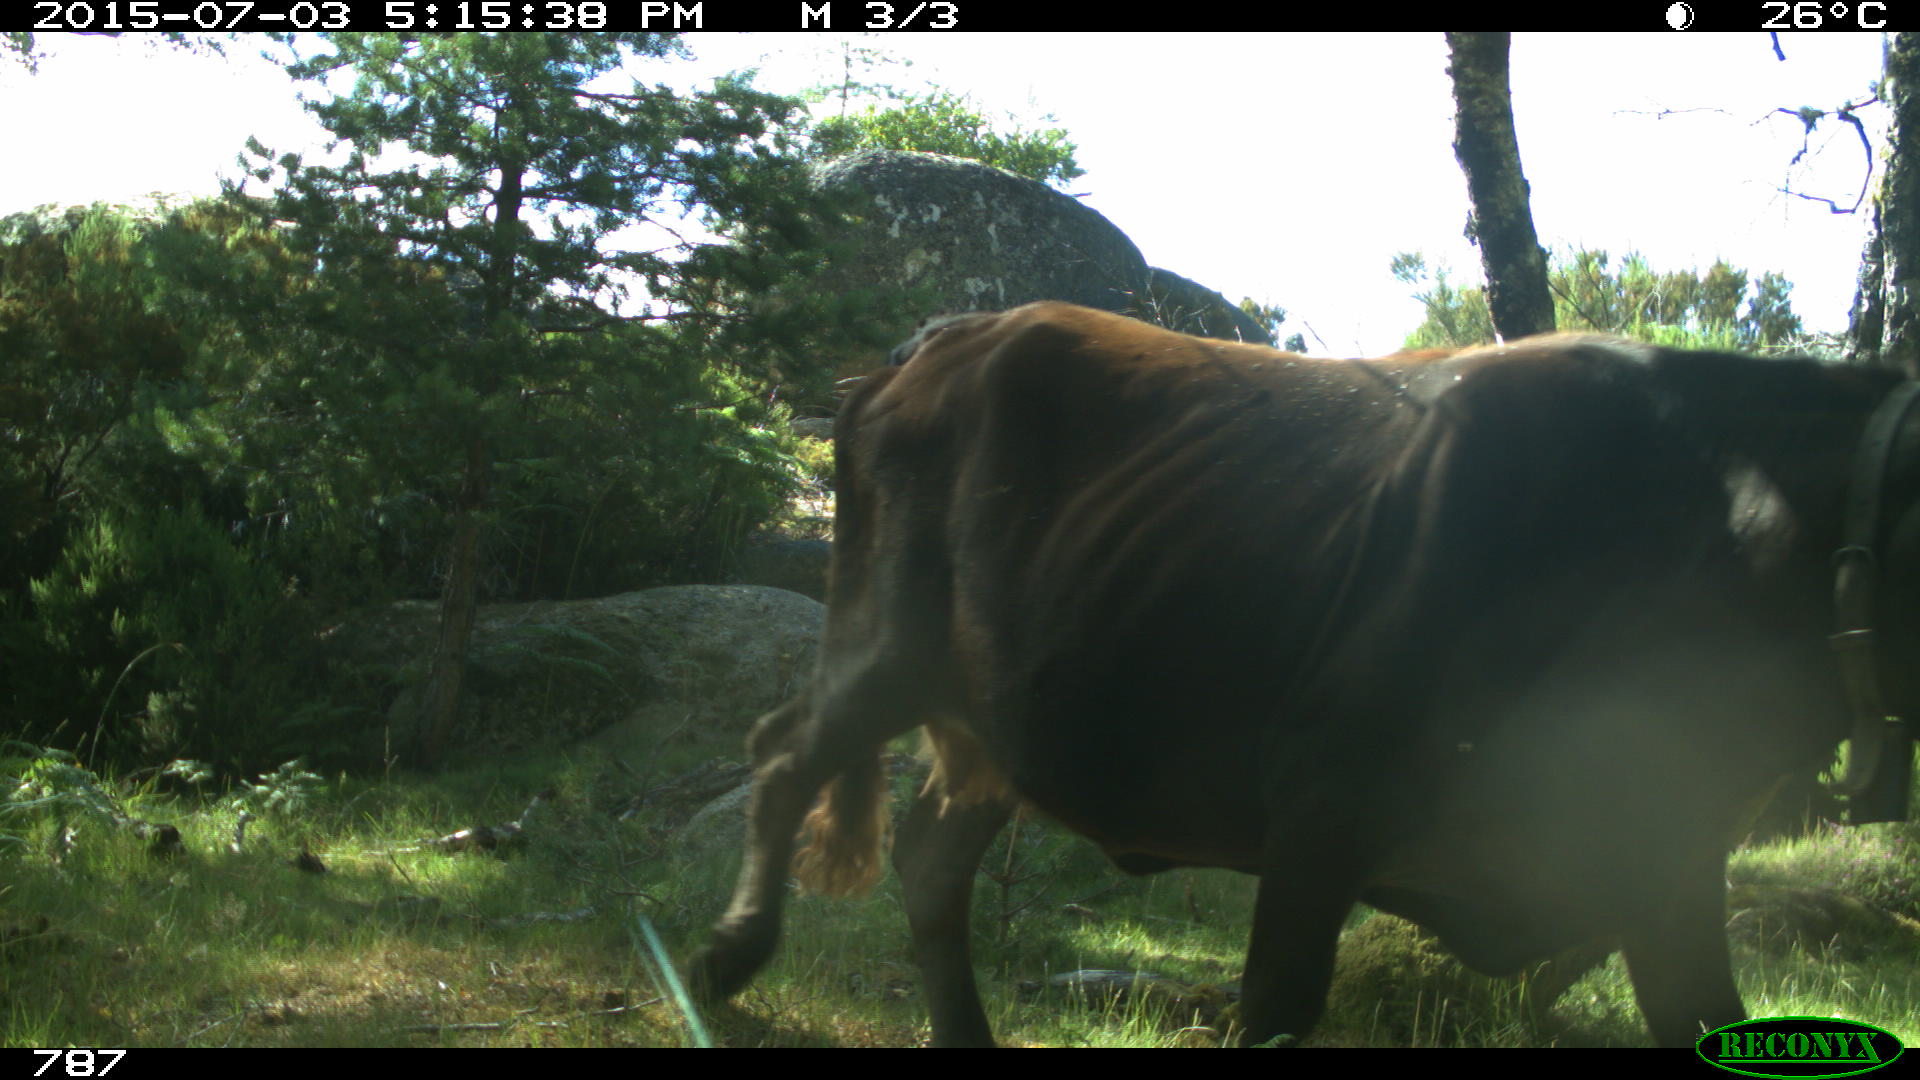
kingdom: Animalia
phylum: Chordata
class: Mammalia
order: Artiodactyla
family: Bovidae
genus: Bos
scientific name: Bos taurus
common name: Domesticated cattle
